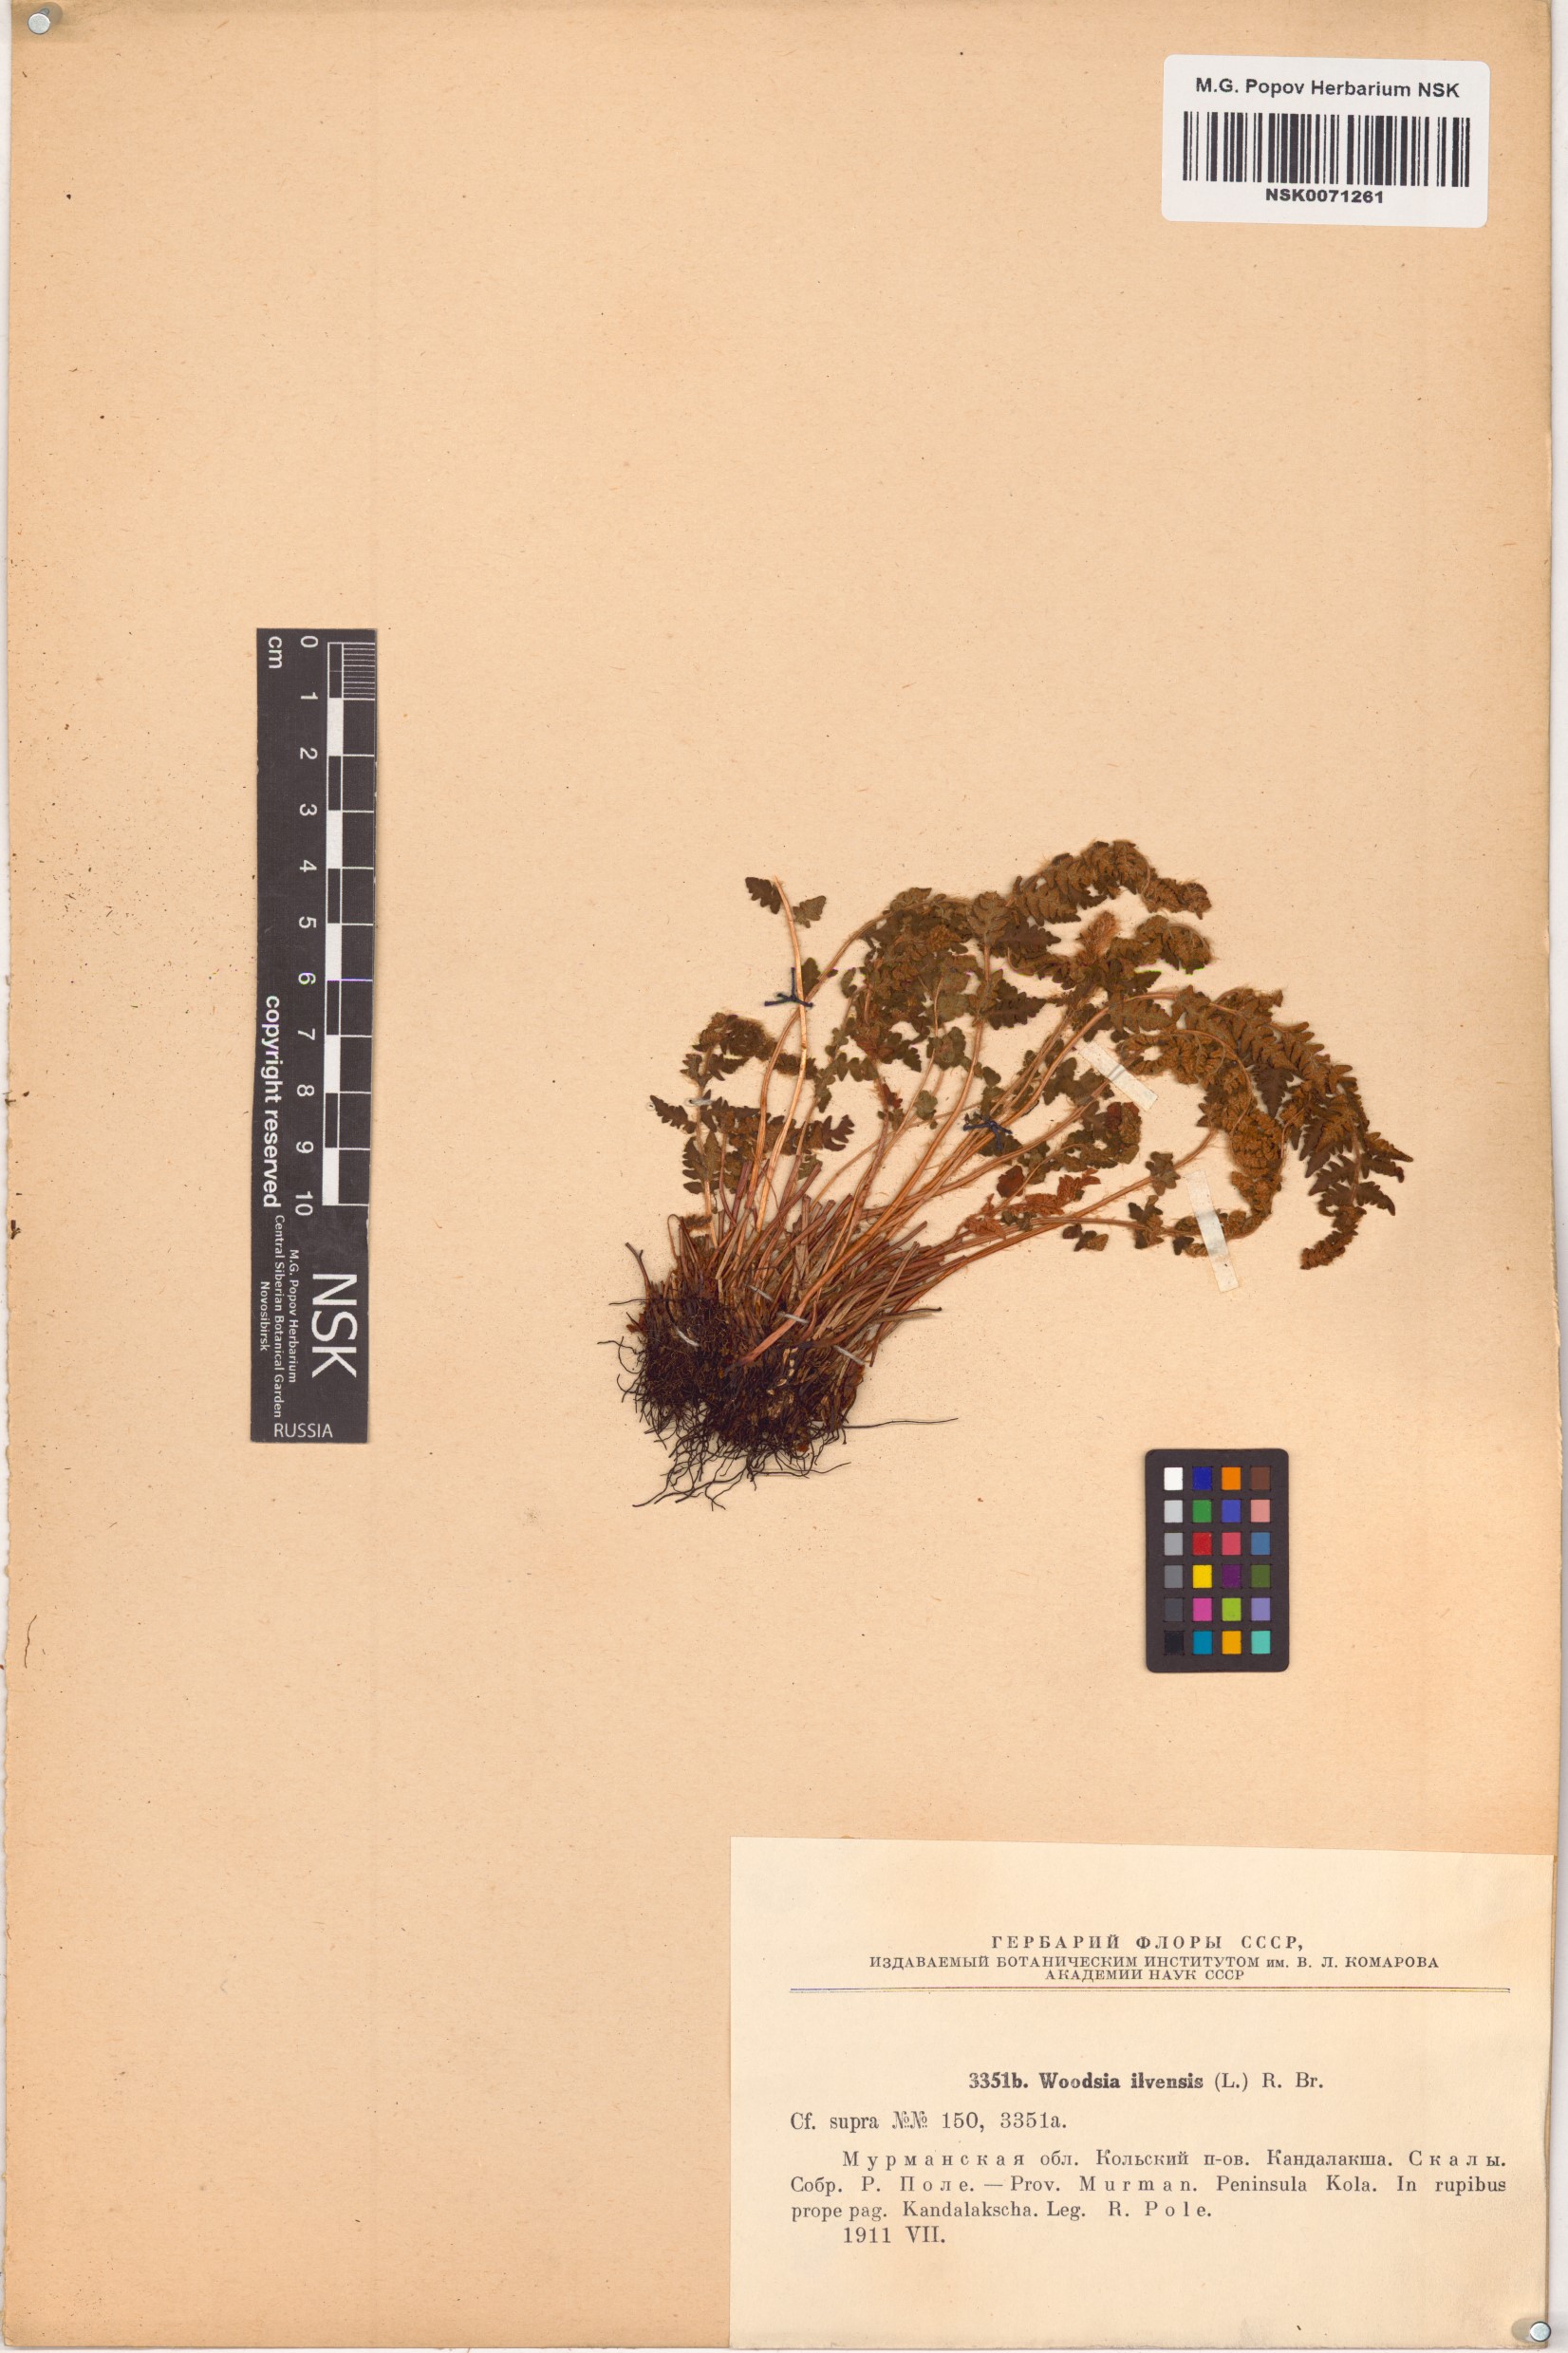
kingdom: Plantae
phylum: Tracheophyta
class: Polypodiopsida
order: Polypodiales
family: Woodsiaceae
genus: Woodsia
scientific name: Woodsia ilvensis
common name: Fragrant woodsia
